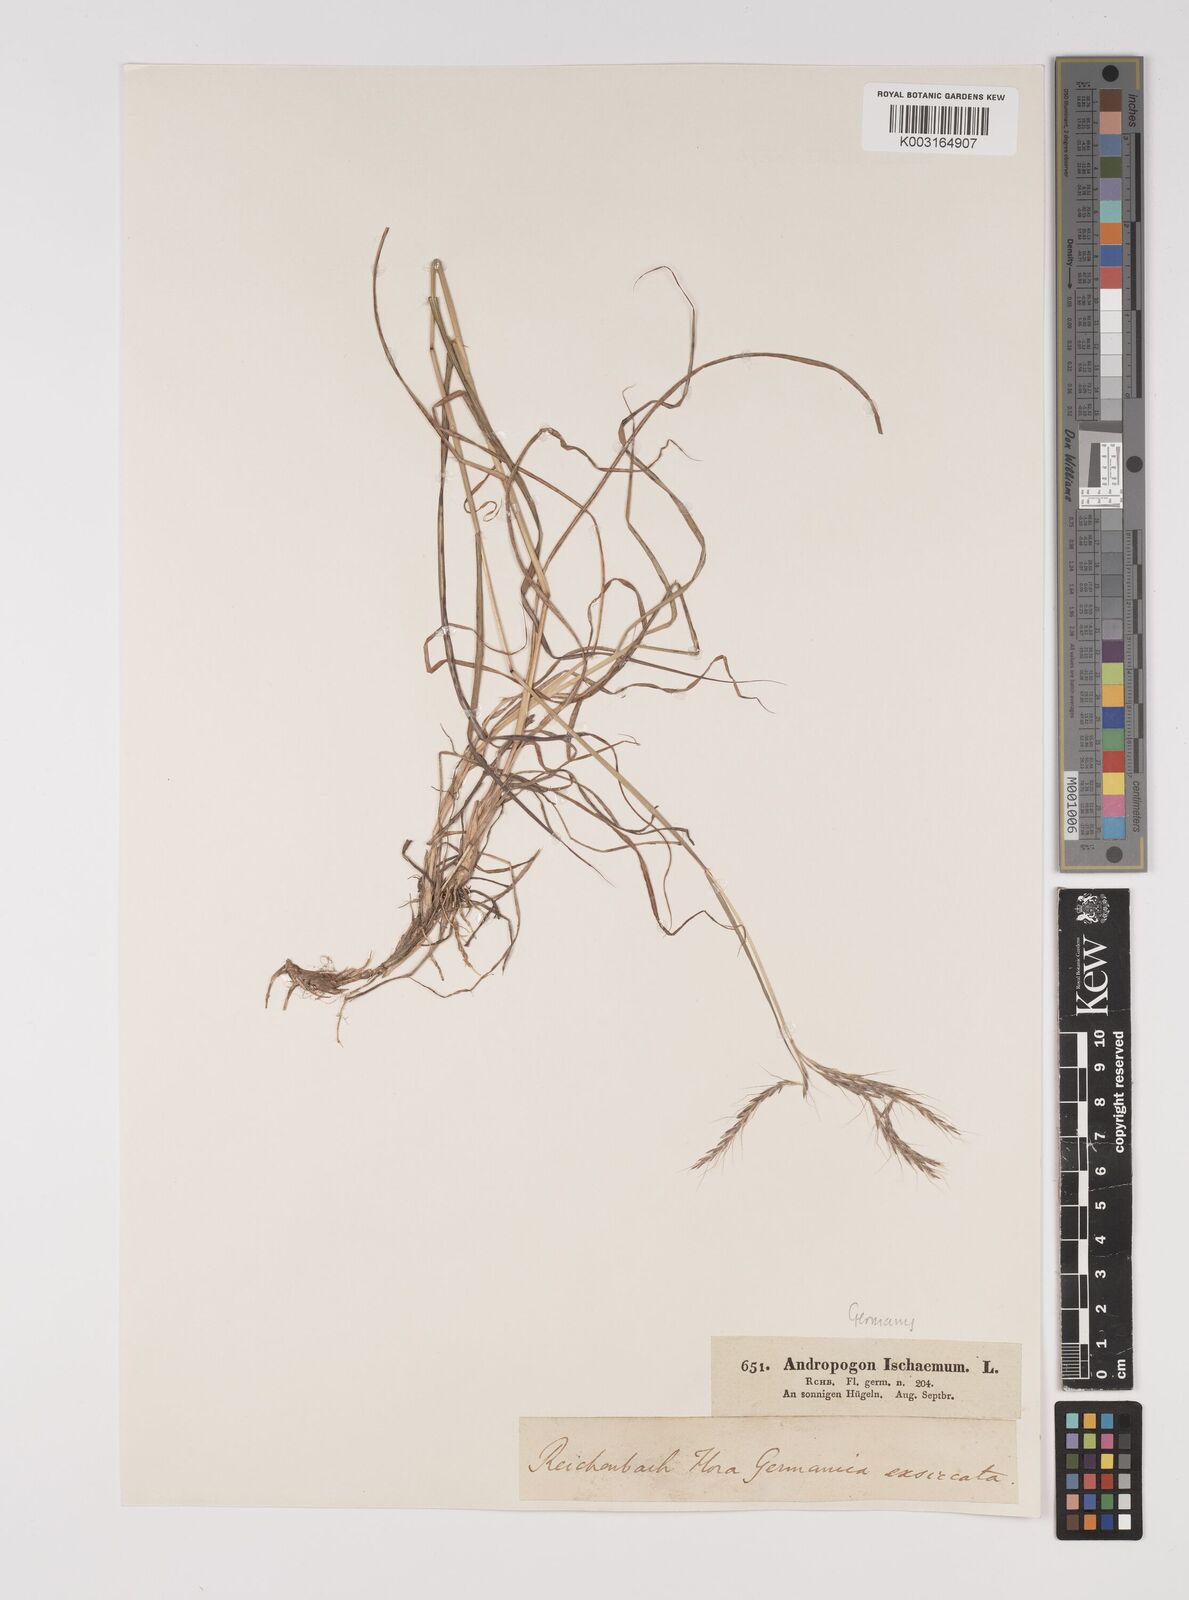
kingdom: Plantae
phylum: Tracheophyta
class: Liliopsida
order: Poales
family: Poaceae
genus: Bothriochloa
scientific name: Bothriochloa ischaemum
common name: Yellow bluestem
